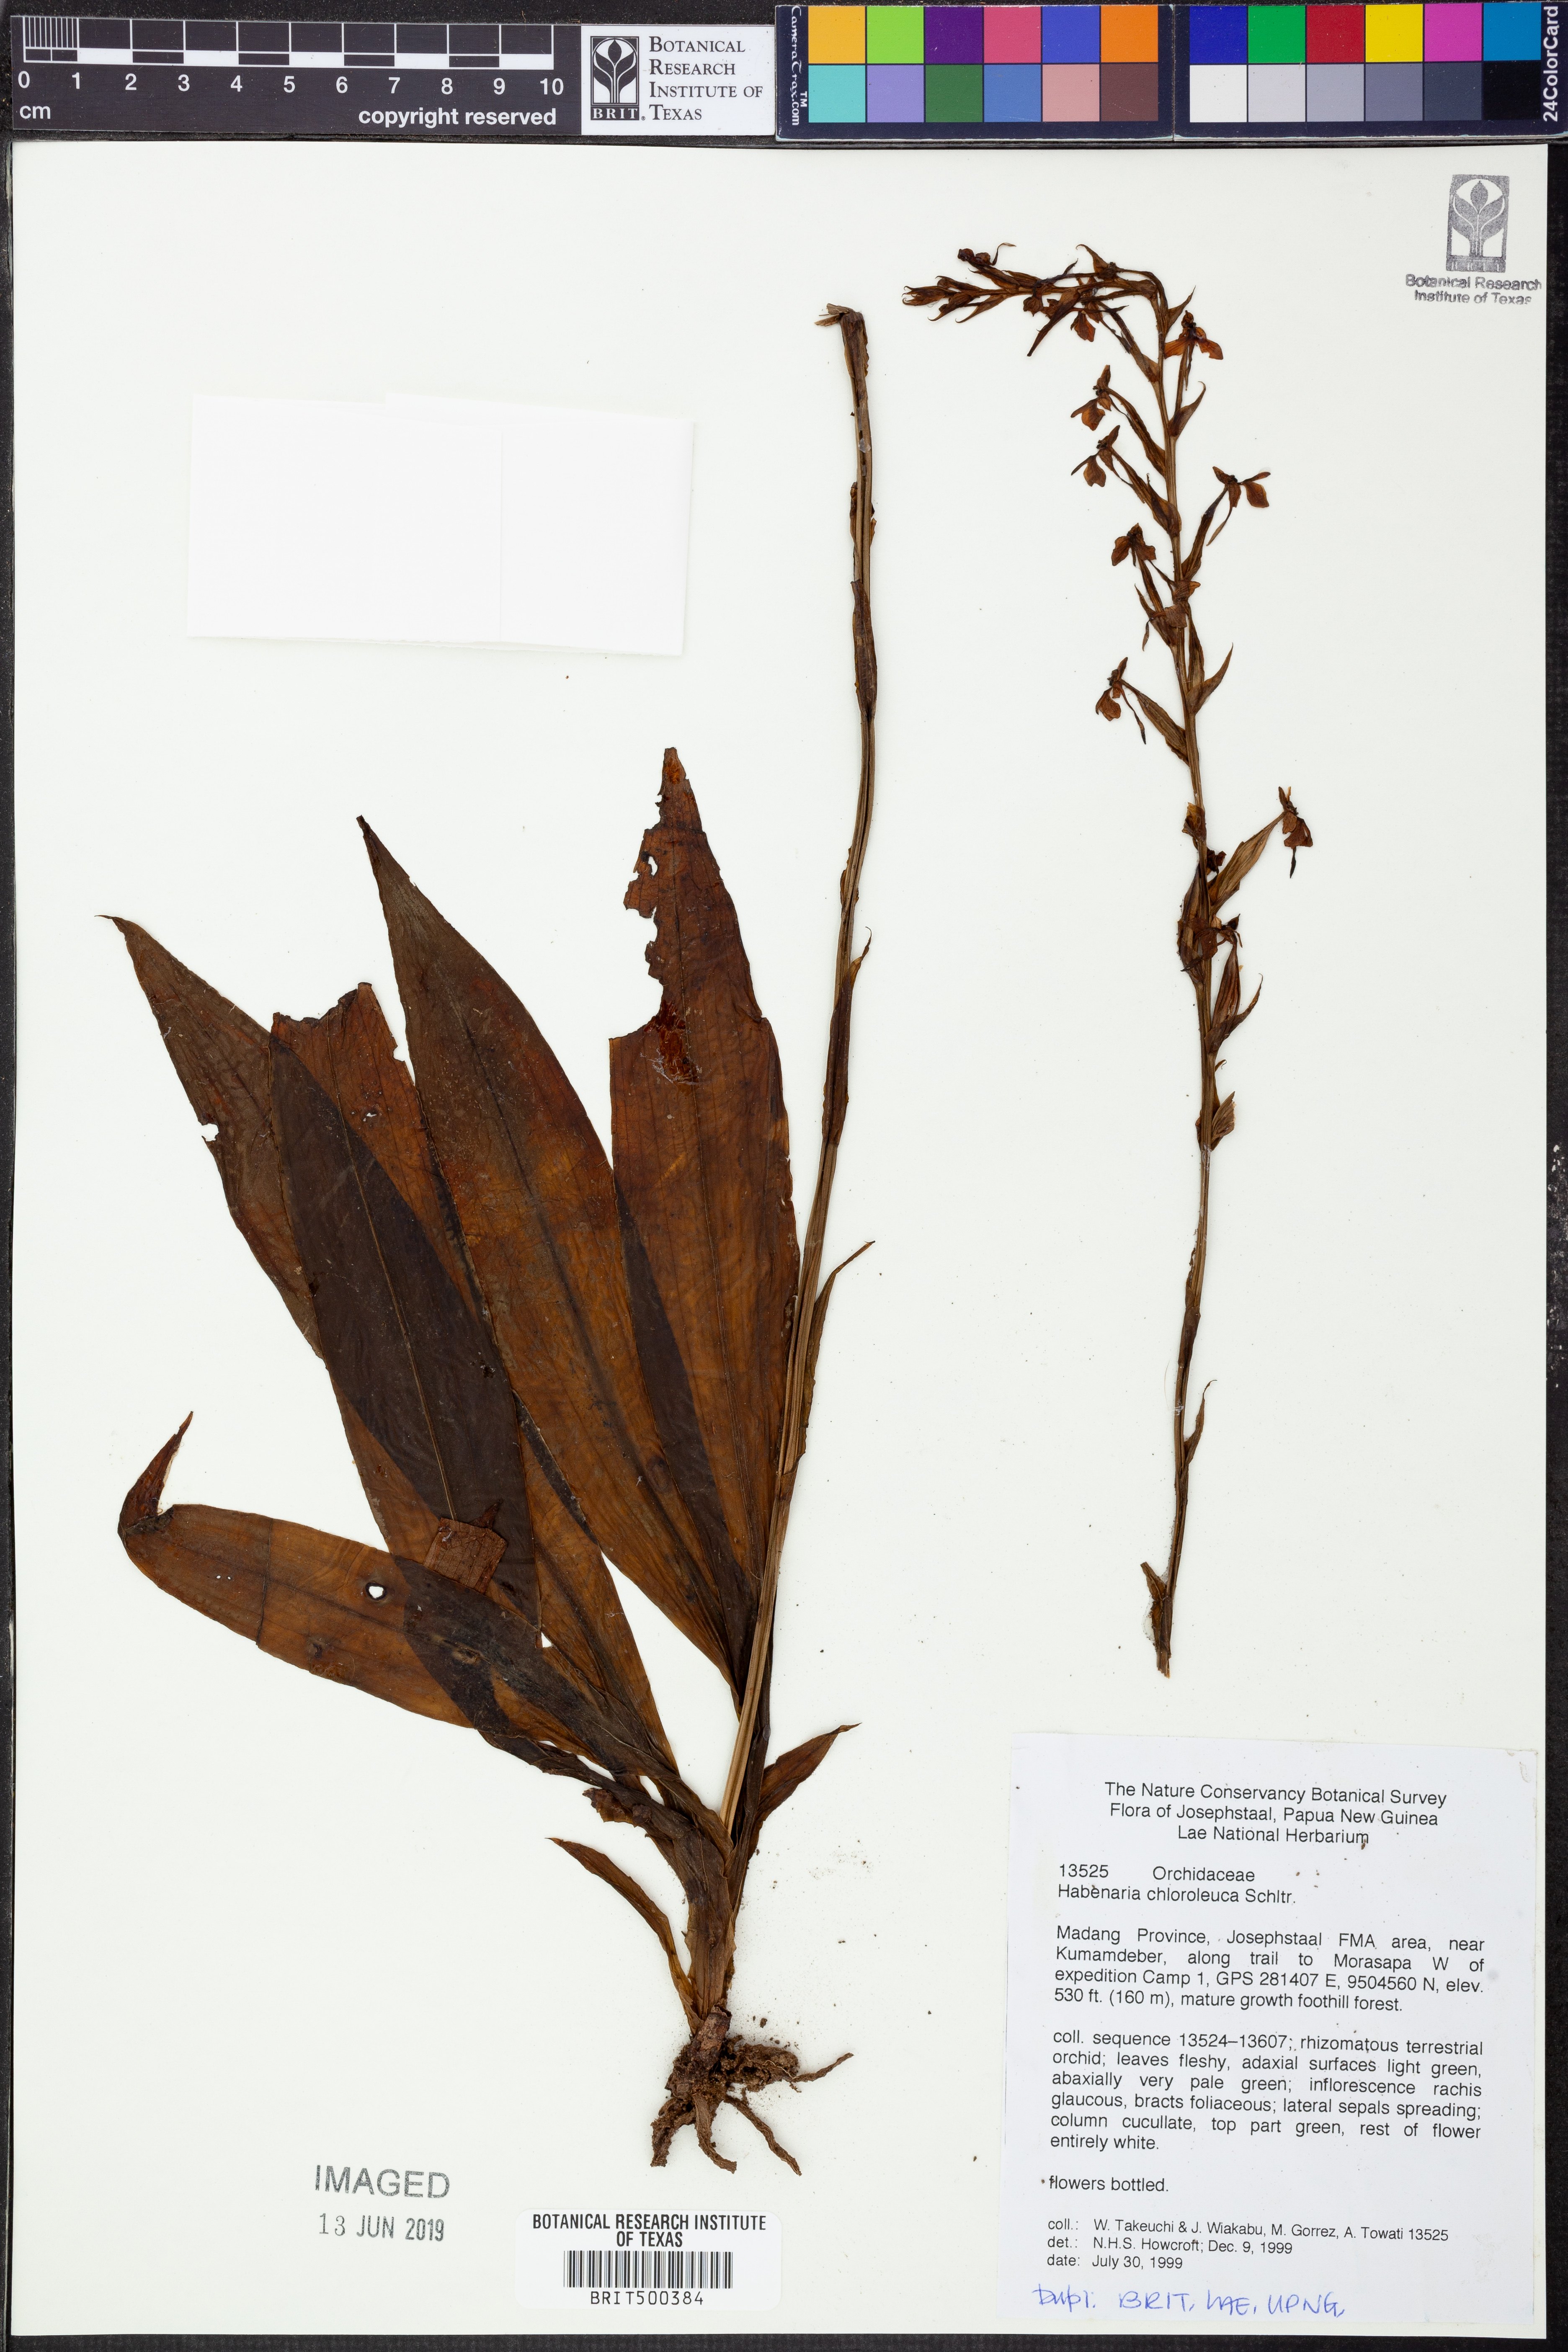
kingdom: Plantae
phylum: Tracheophyta
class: Liliopsida
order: Asparagales
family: Orchidaceae
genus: Platanthera
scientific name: Platanthera chlorantha
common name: Greater butterfly-orchid
